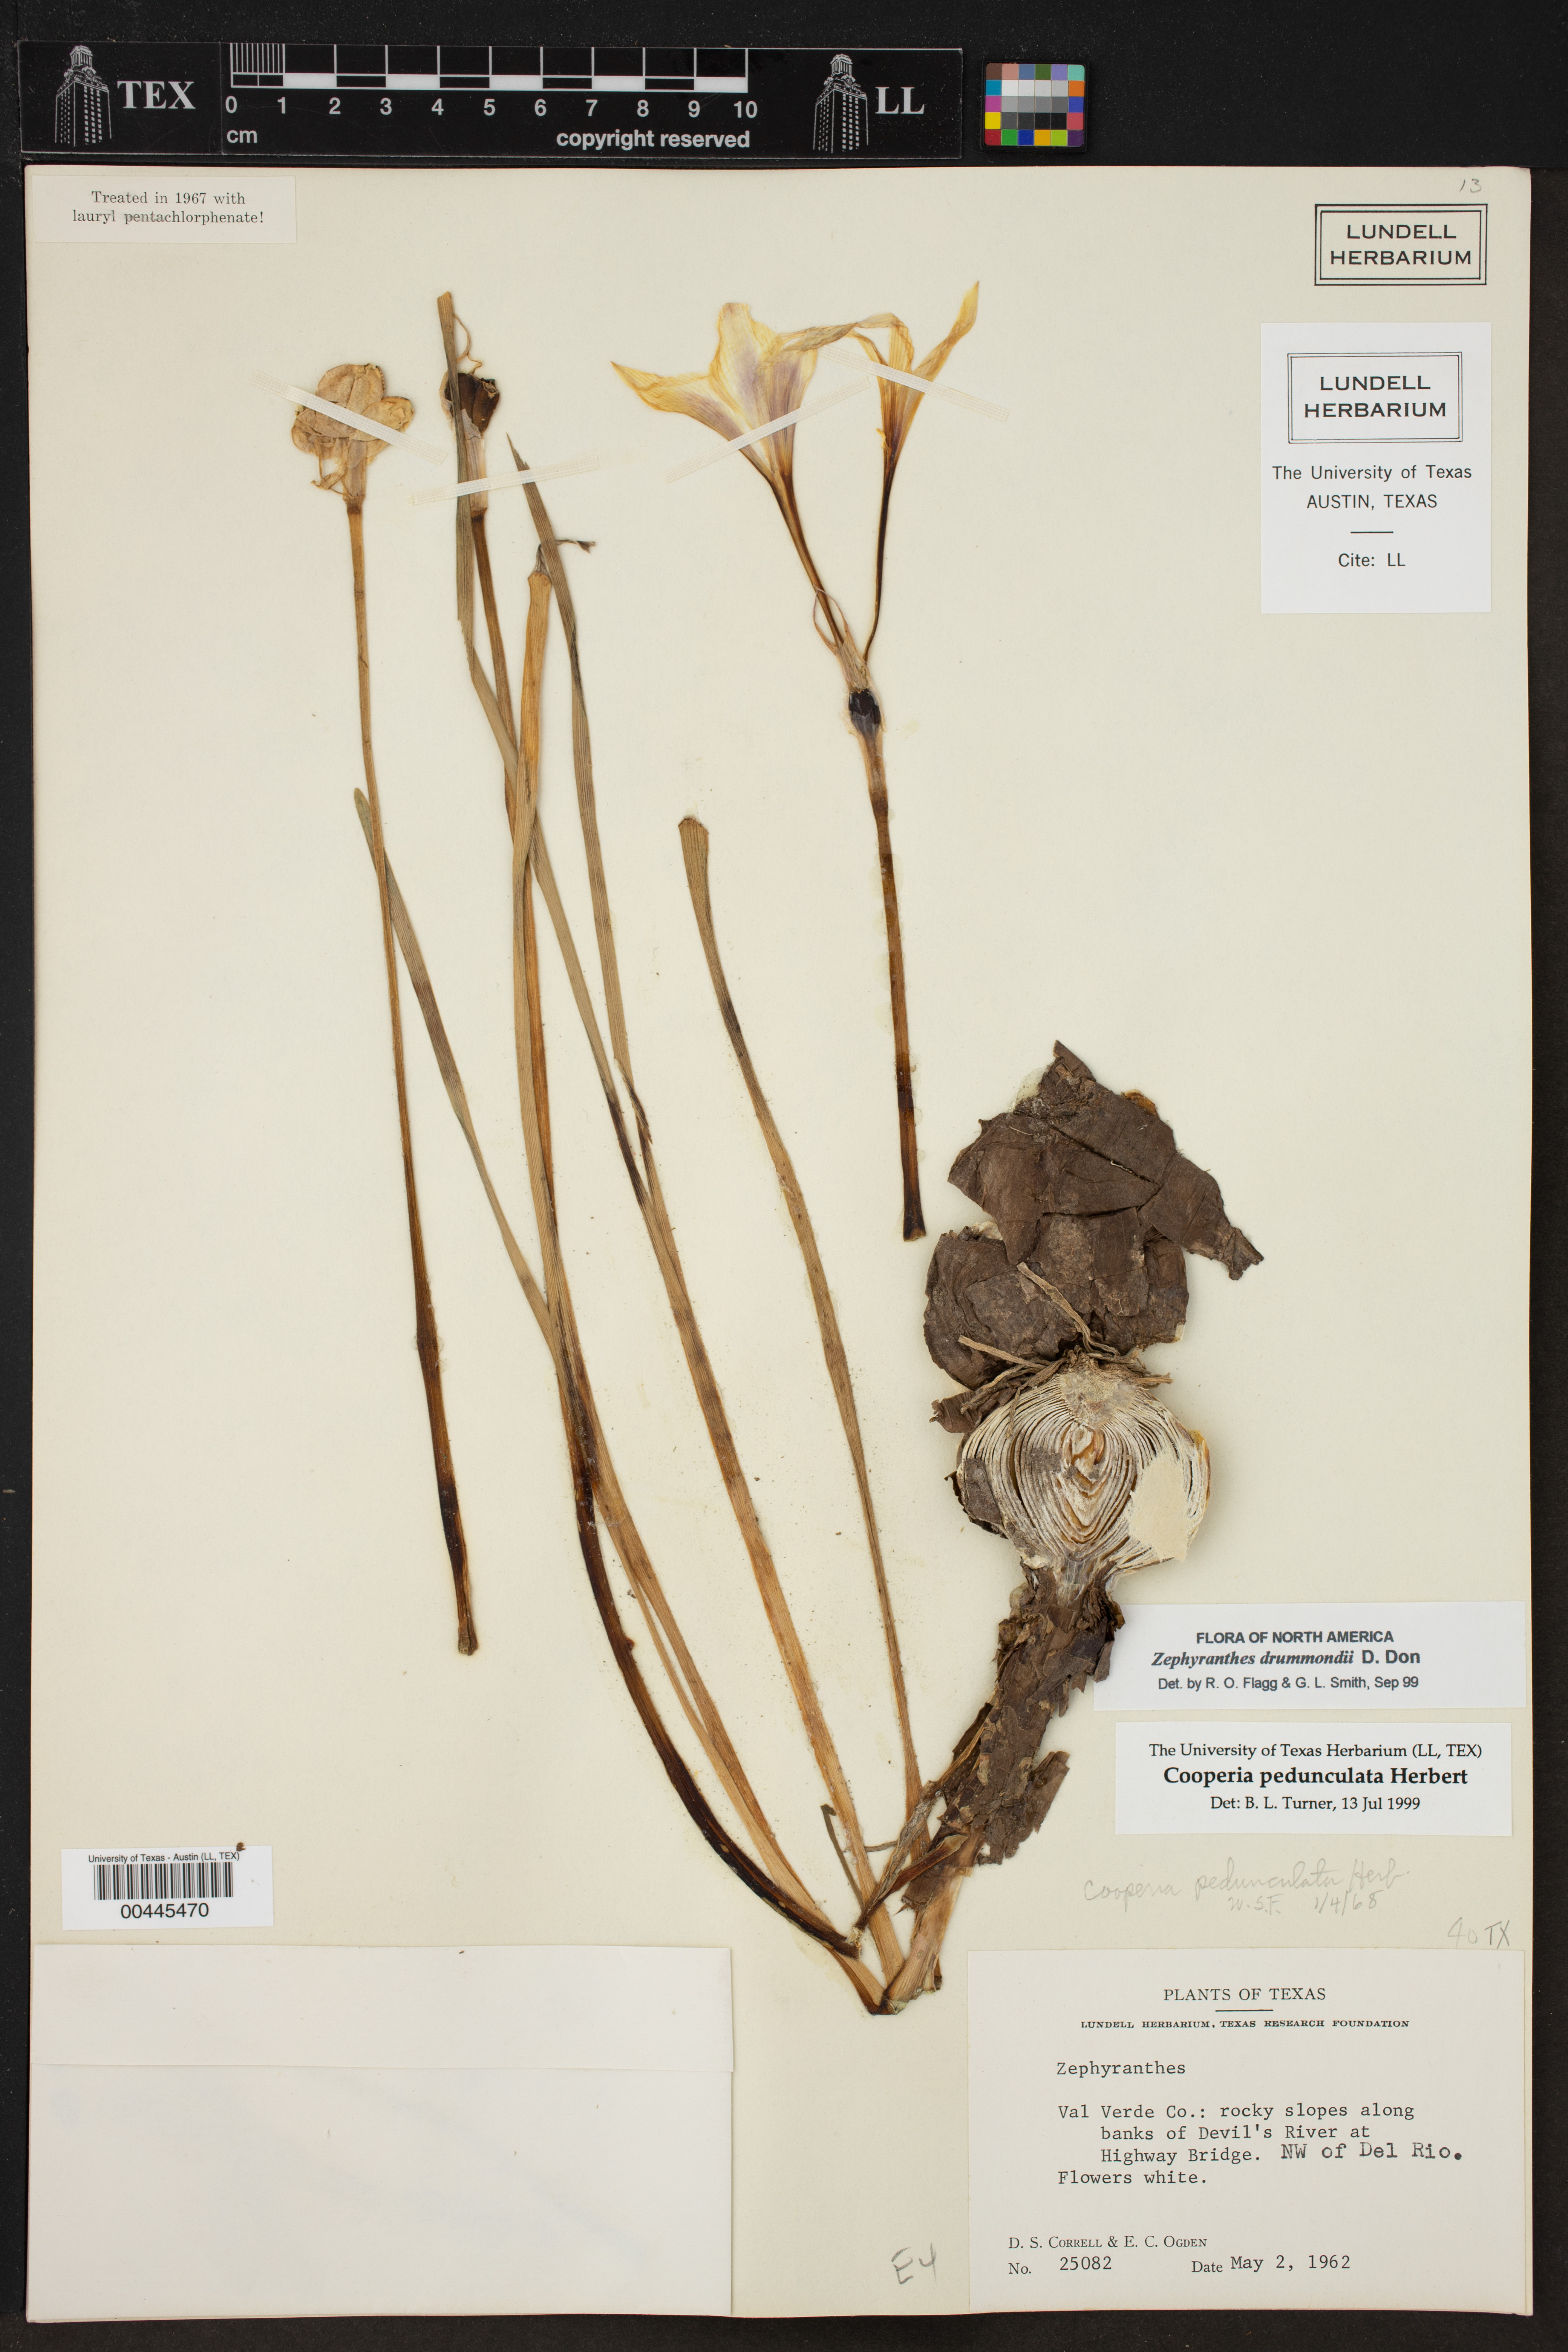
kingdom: Plantae
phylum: Tracheophyta
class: Liliopsida
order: Asparagales
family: Amaryllidaceae
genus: Zephyranthes
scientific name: Zephyranthes drummondii
